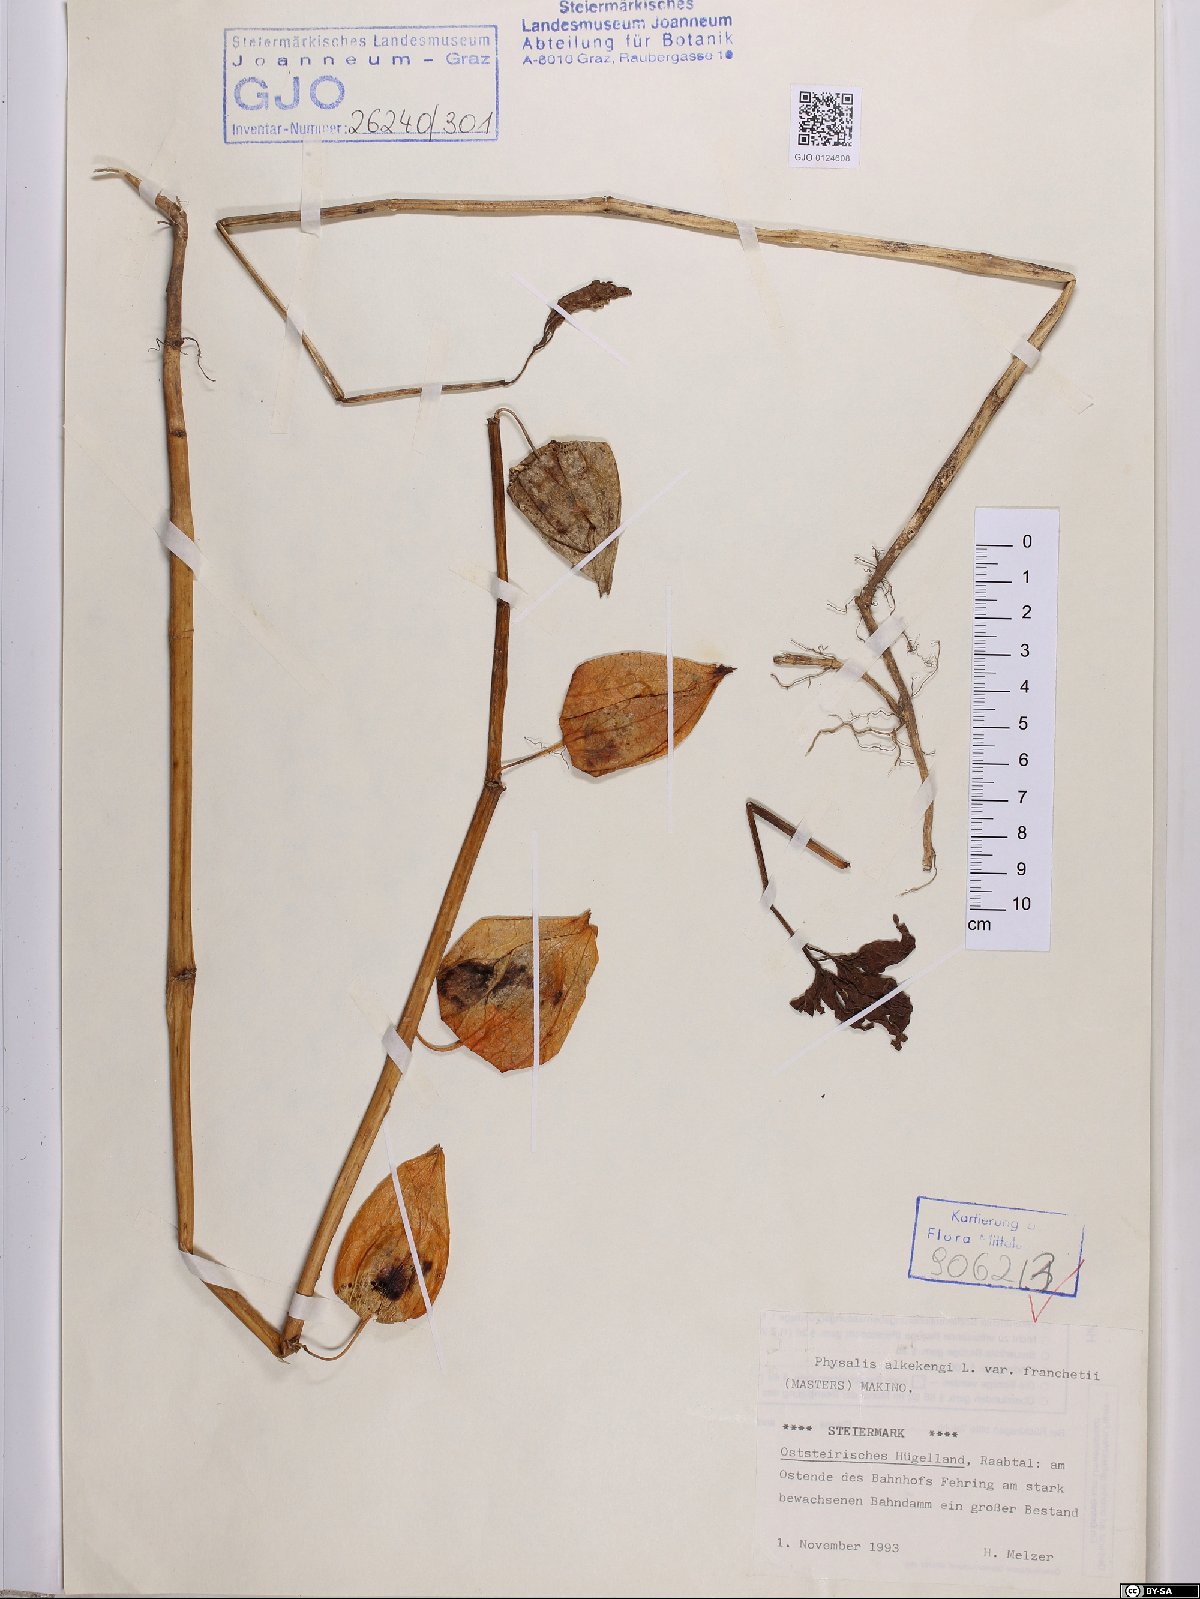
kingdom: Plantae
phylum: Tracheophyta
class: Magnoliopsida
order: Solanales
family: Solanaceae
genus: Alkekengi
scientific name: Alkekengi officinarum
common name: Japanese-lantern
